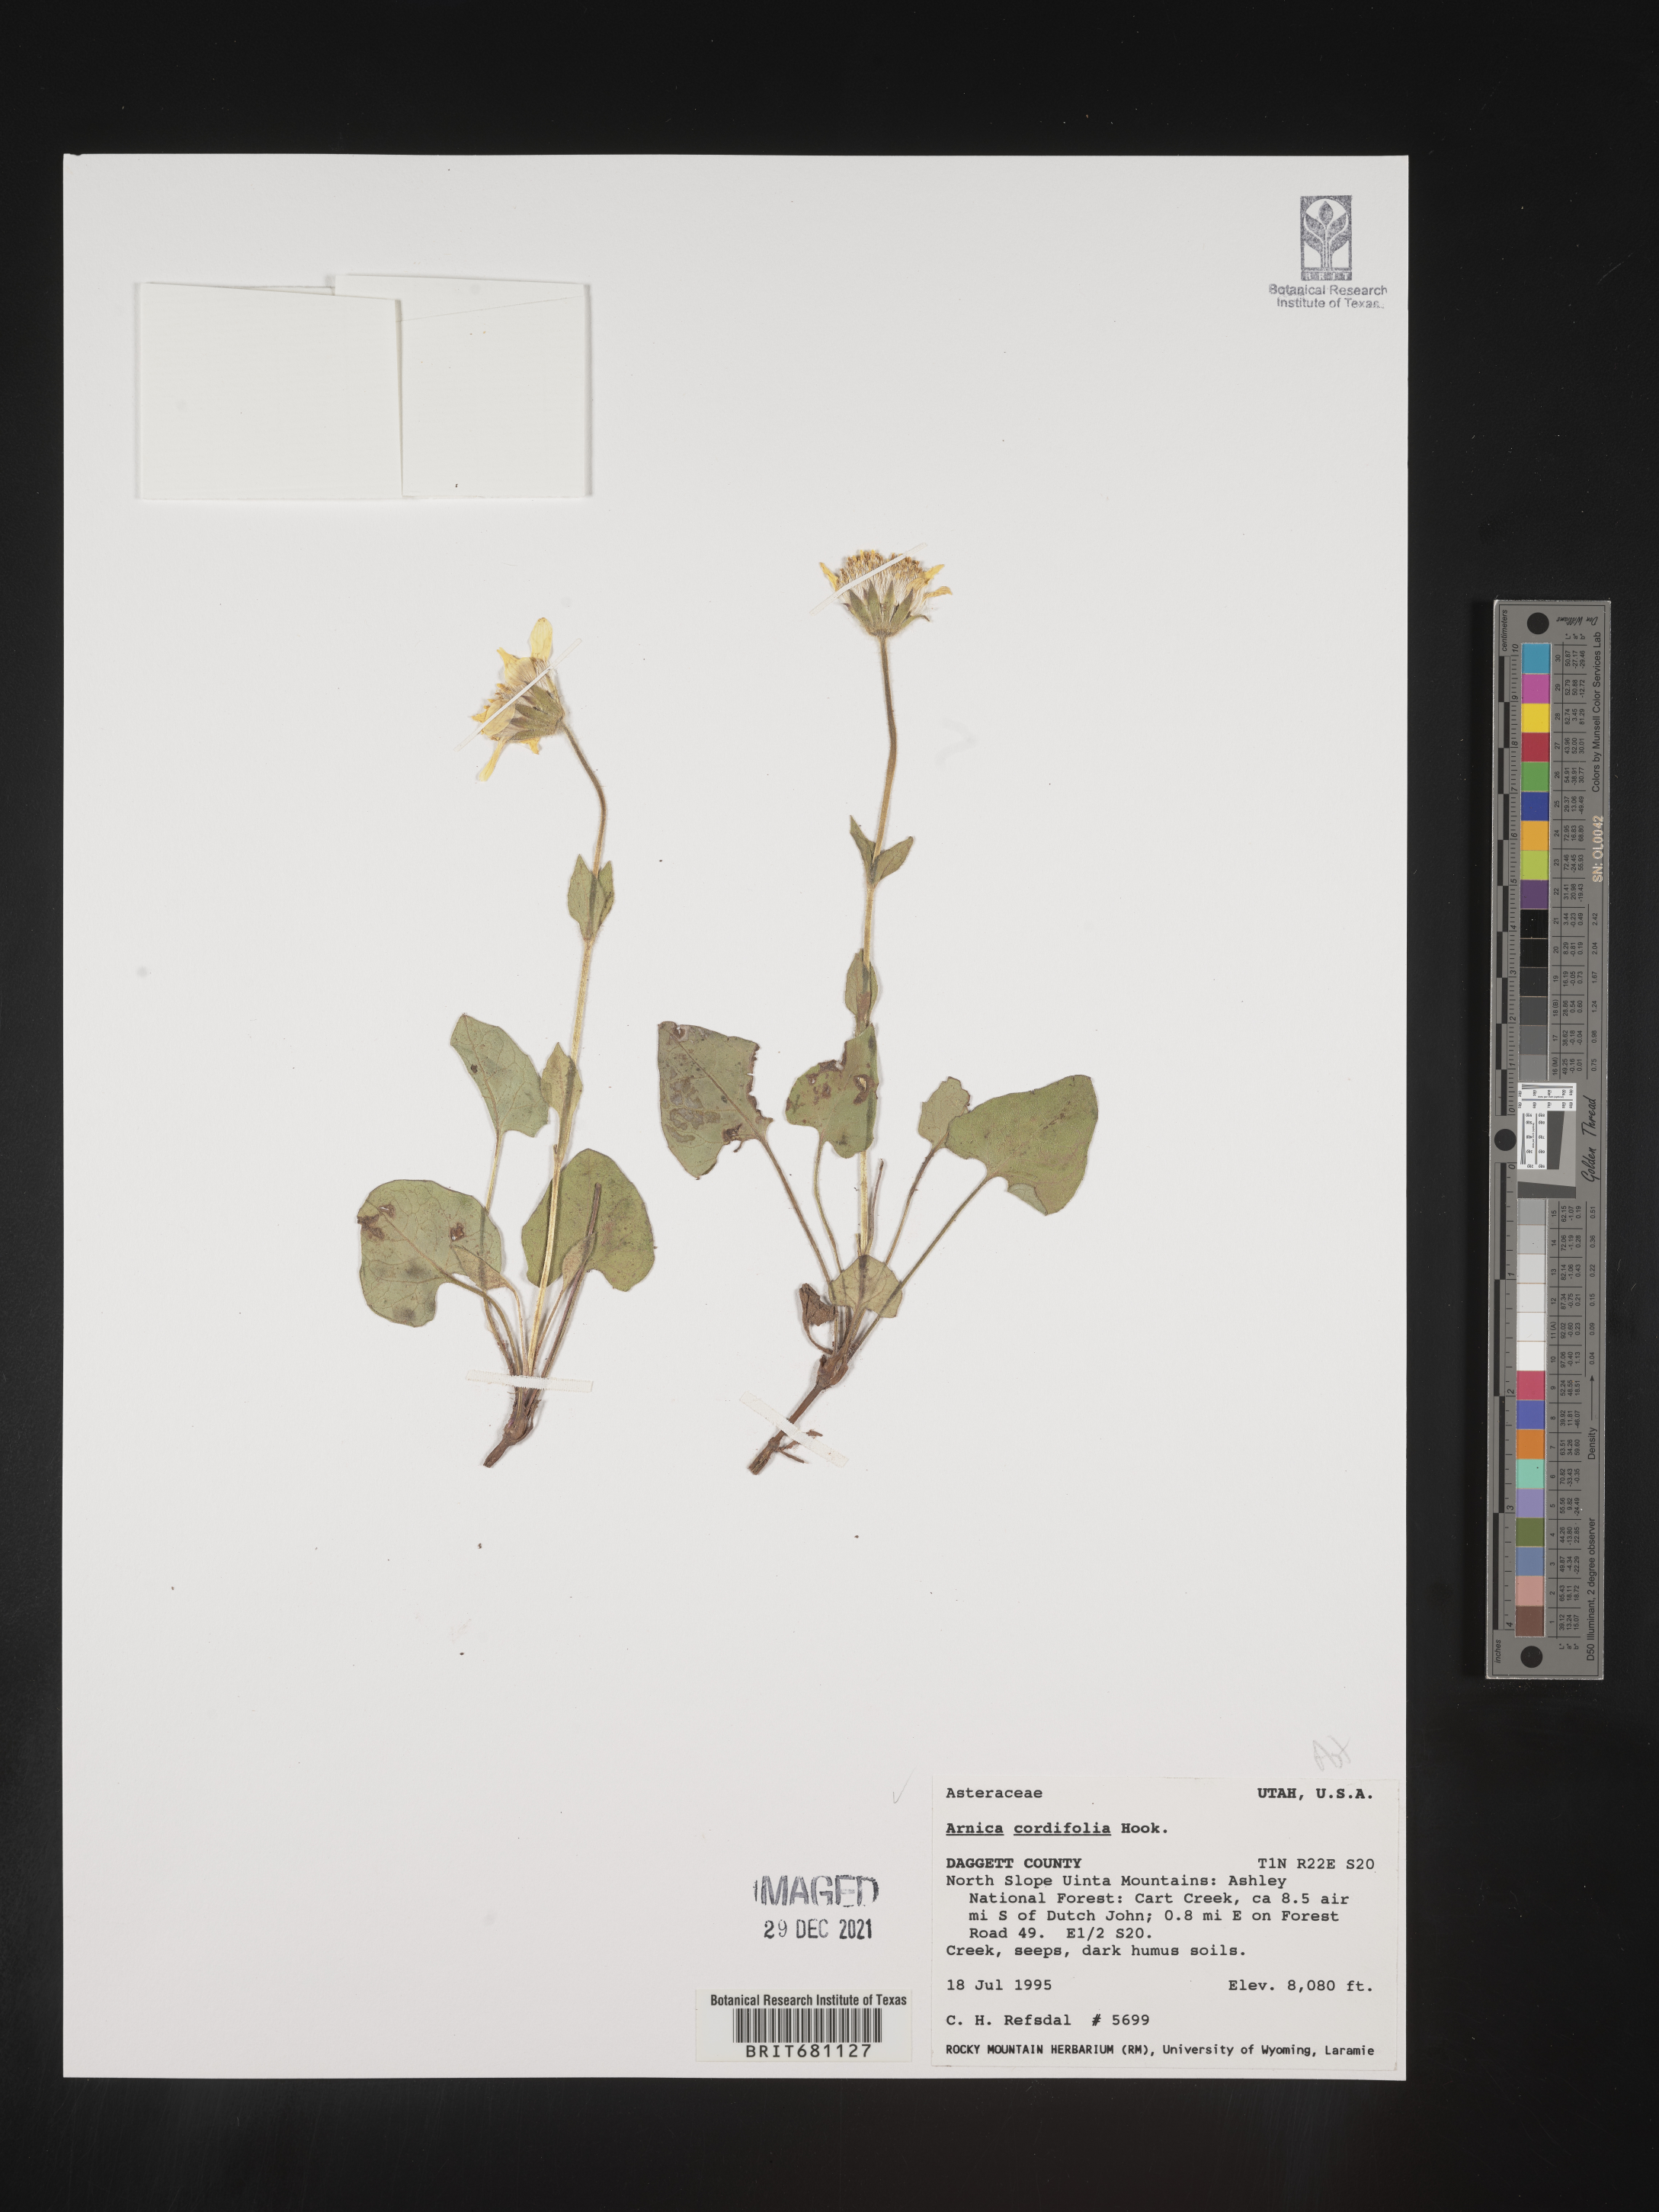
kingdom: Plantae
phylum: Tracheophyta
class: Magnoliopsida
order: Asterales
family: Asteraceae
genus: Arnica
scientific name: Arnica cordifolia
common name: Heart-leaf arnica
